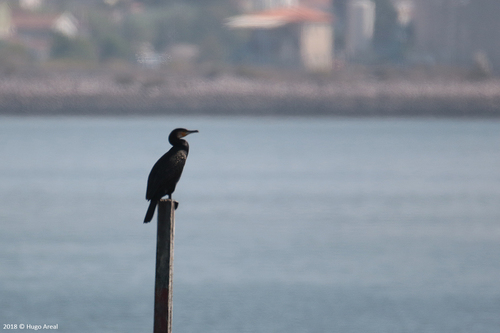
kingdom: Animalia
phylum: Chordata
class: Aves
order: Suliformes
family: Phalacrocoracidae
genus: Phalacrocorax
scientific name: Phalacrocorax carbo
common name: Great cormorant
